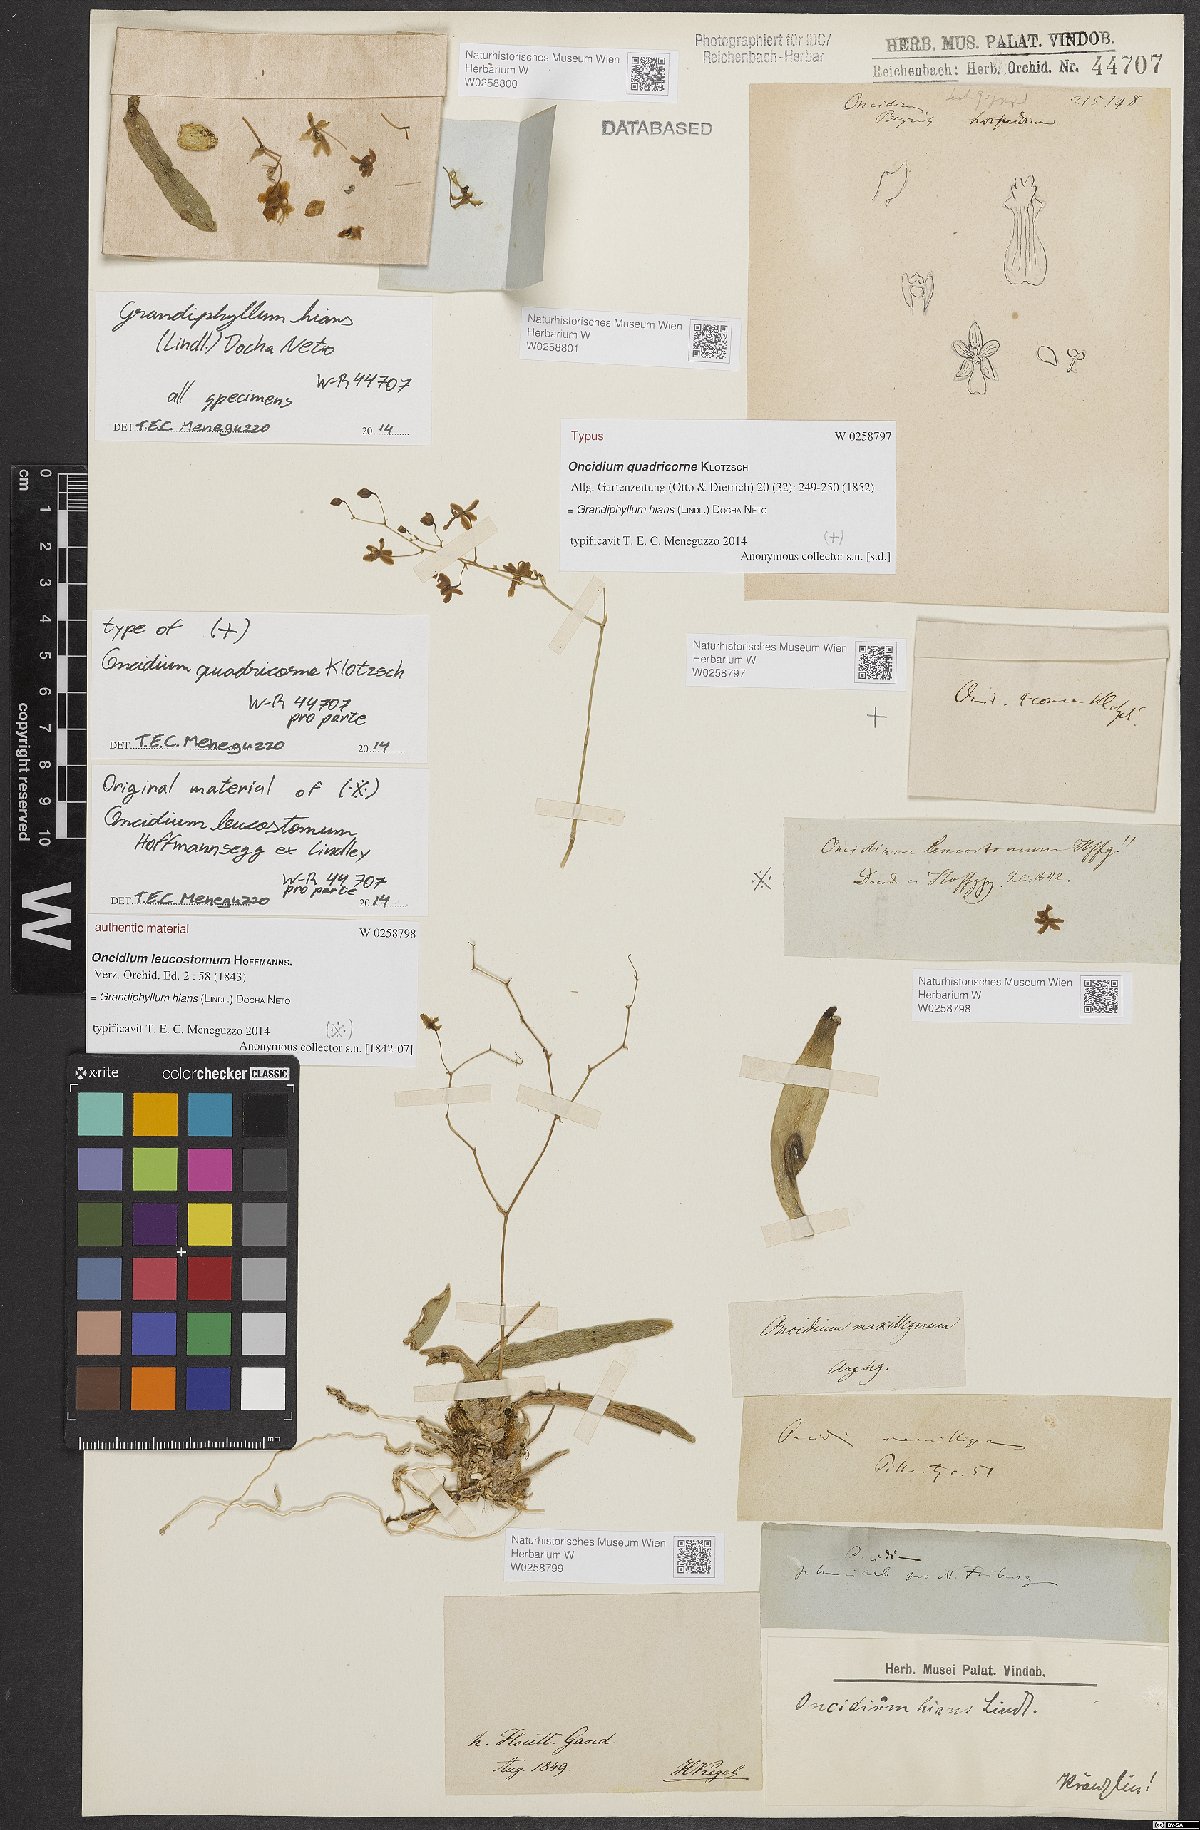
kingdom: Plantae
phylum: Tracheophyta
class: Liliopsida
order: Asparagales
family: Orchidaceae
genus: Grandiphyllum
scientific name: Grandiphyllum hians
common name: Mule-ear orchid
